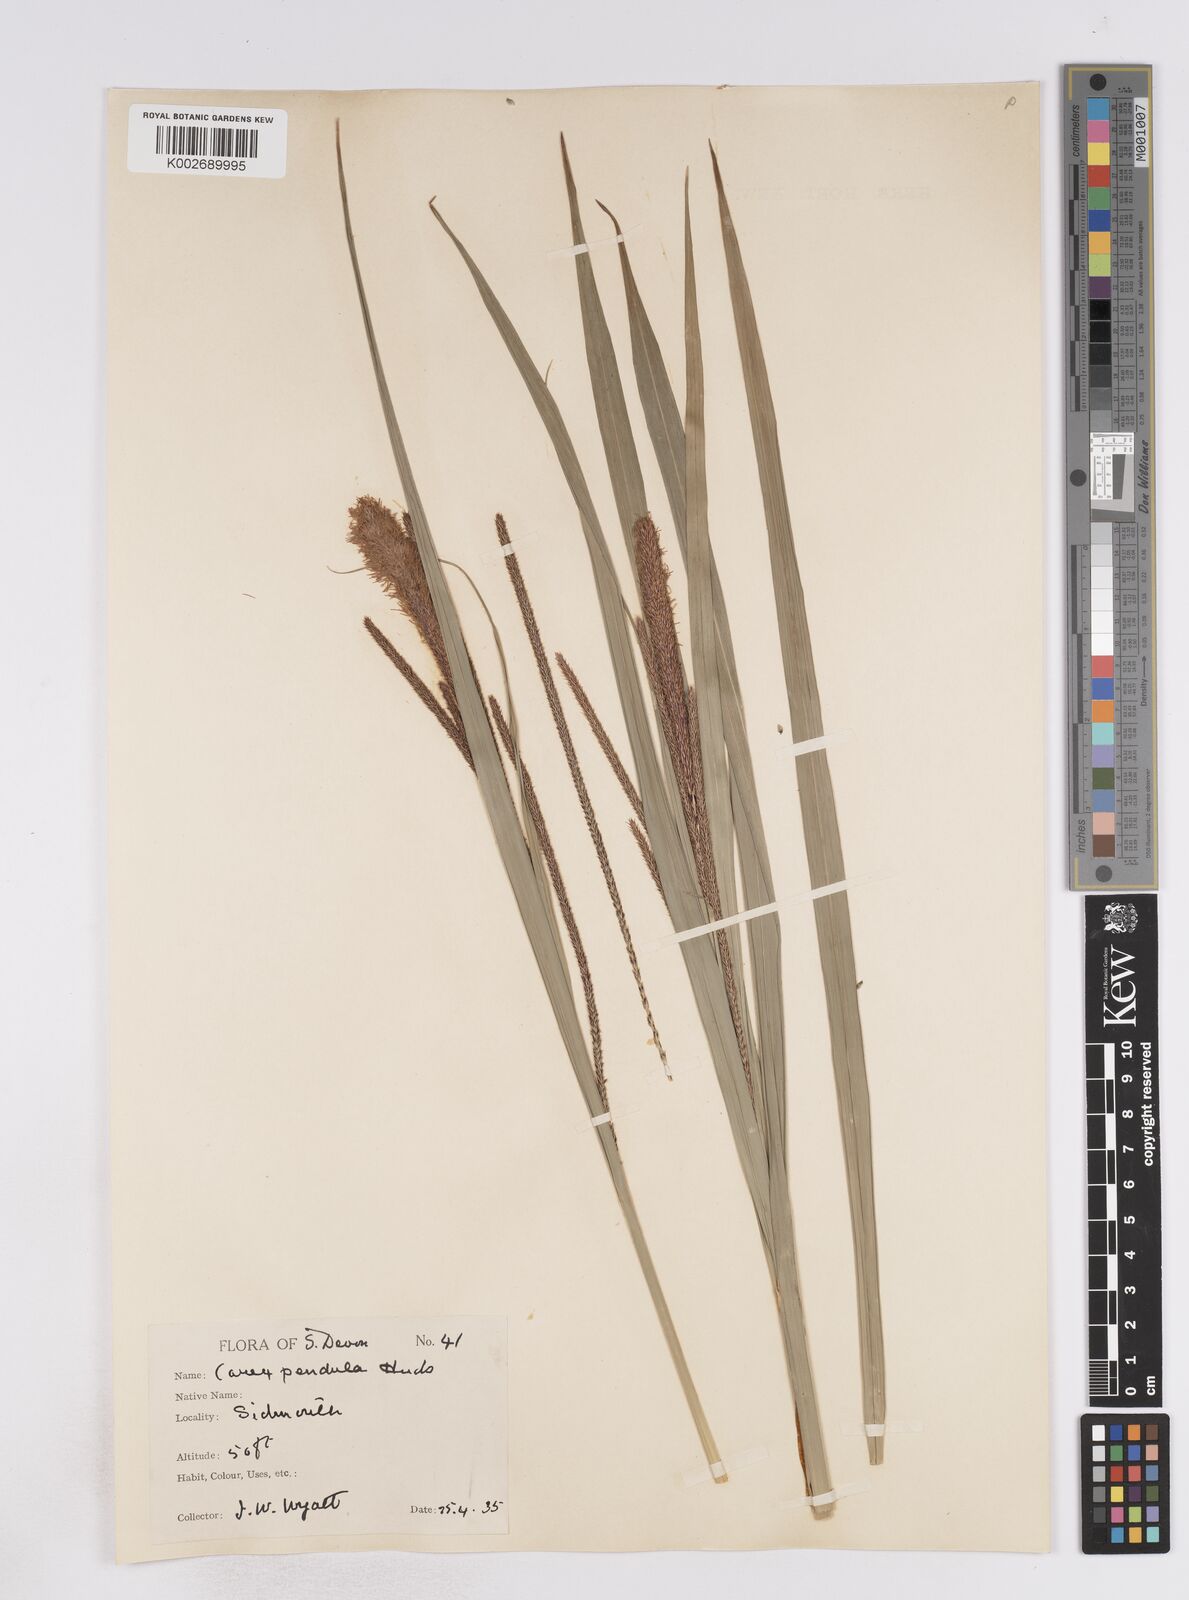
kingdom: Plantae
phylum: Tracheophyta
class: Liliopsida
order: Poales
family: Cyperaceae
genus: Carex
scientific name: Carex pendula
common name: Pendulous sedge
